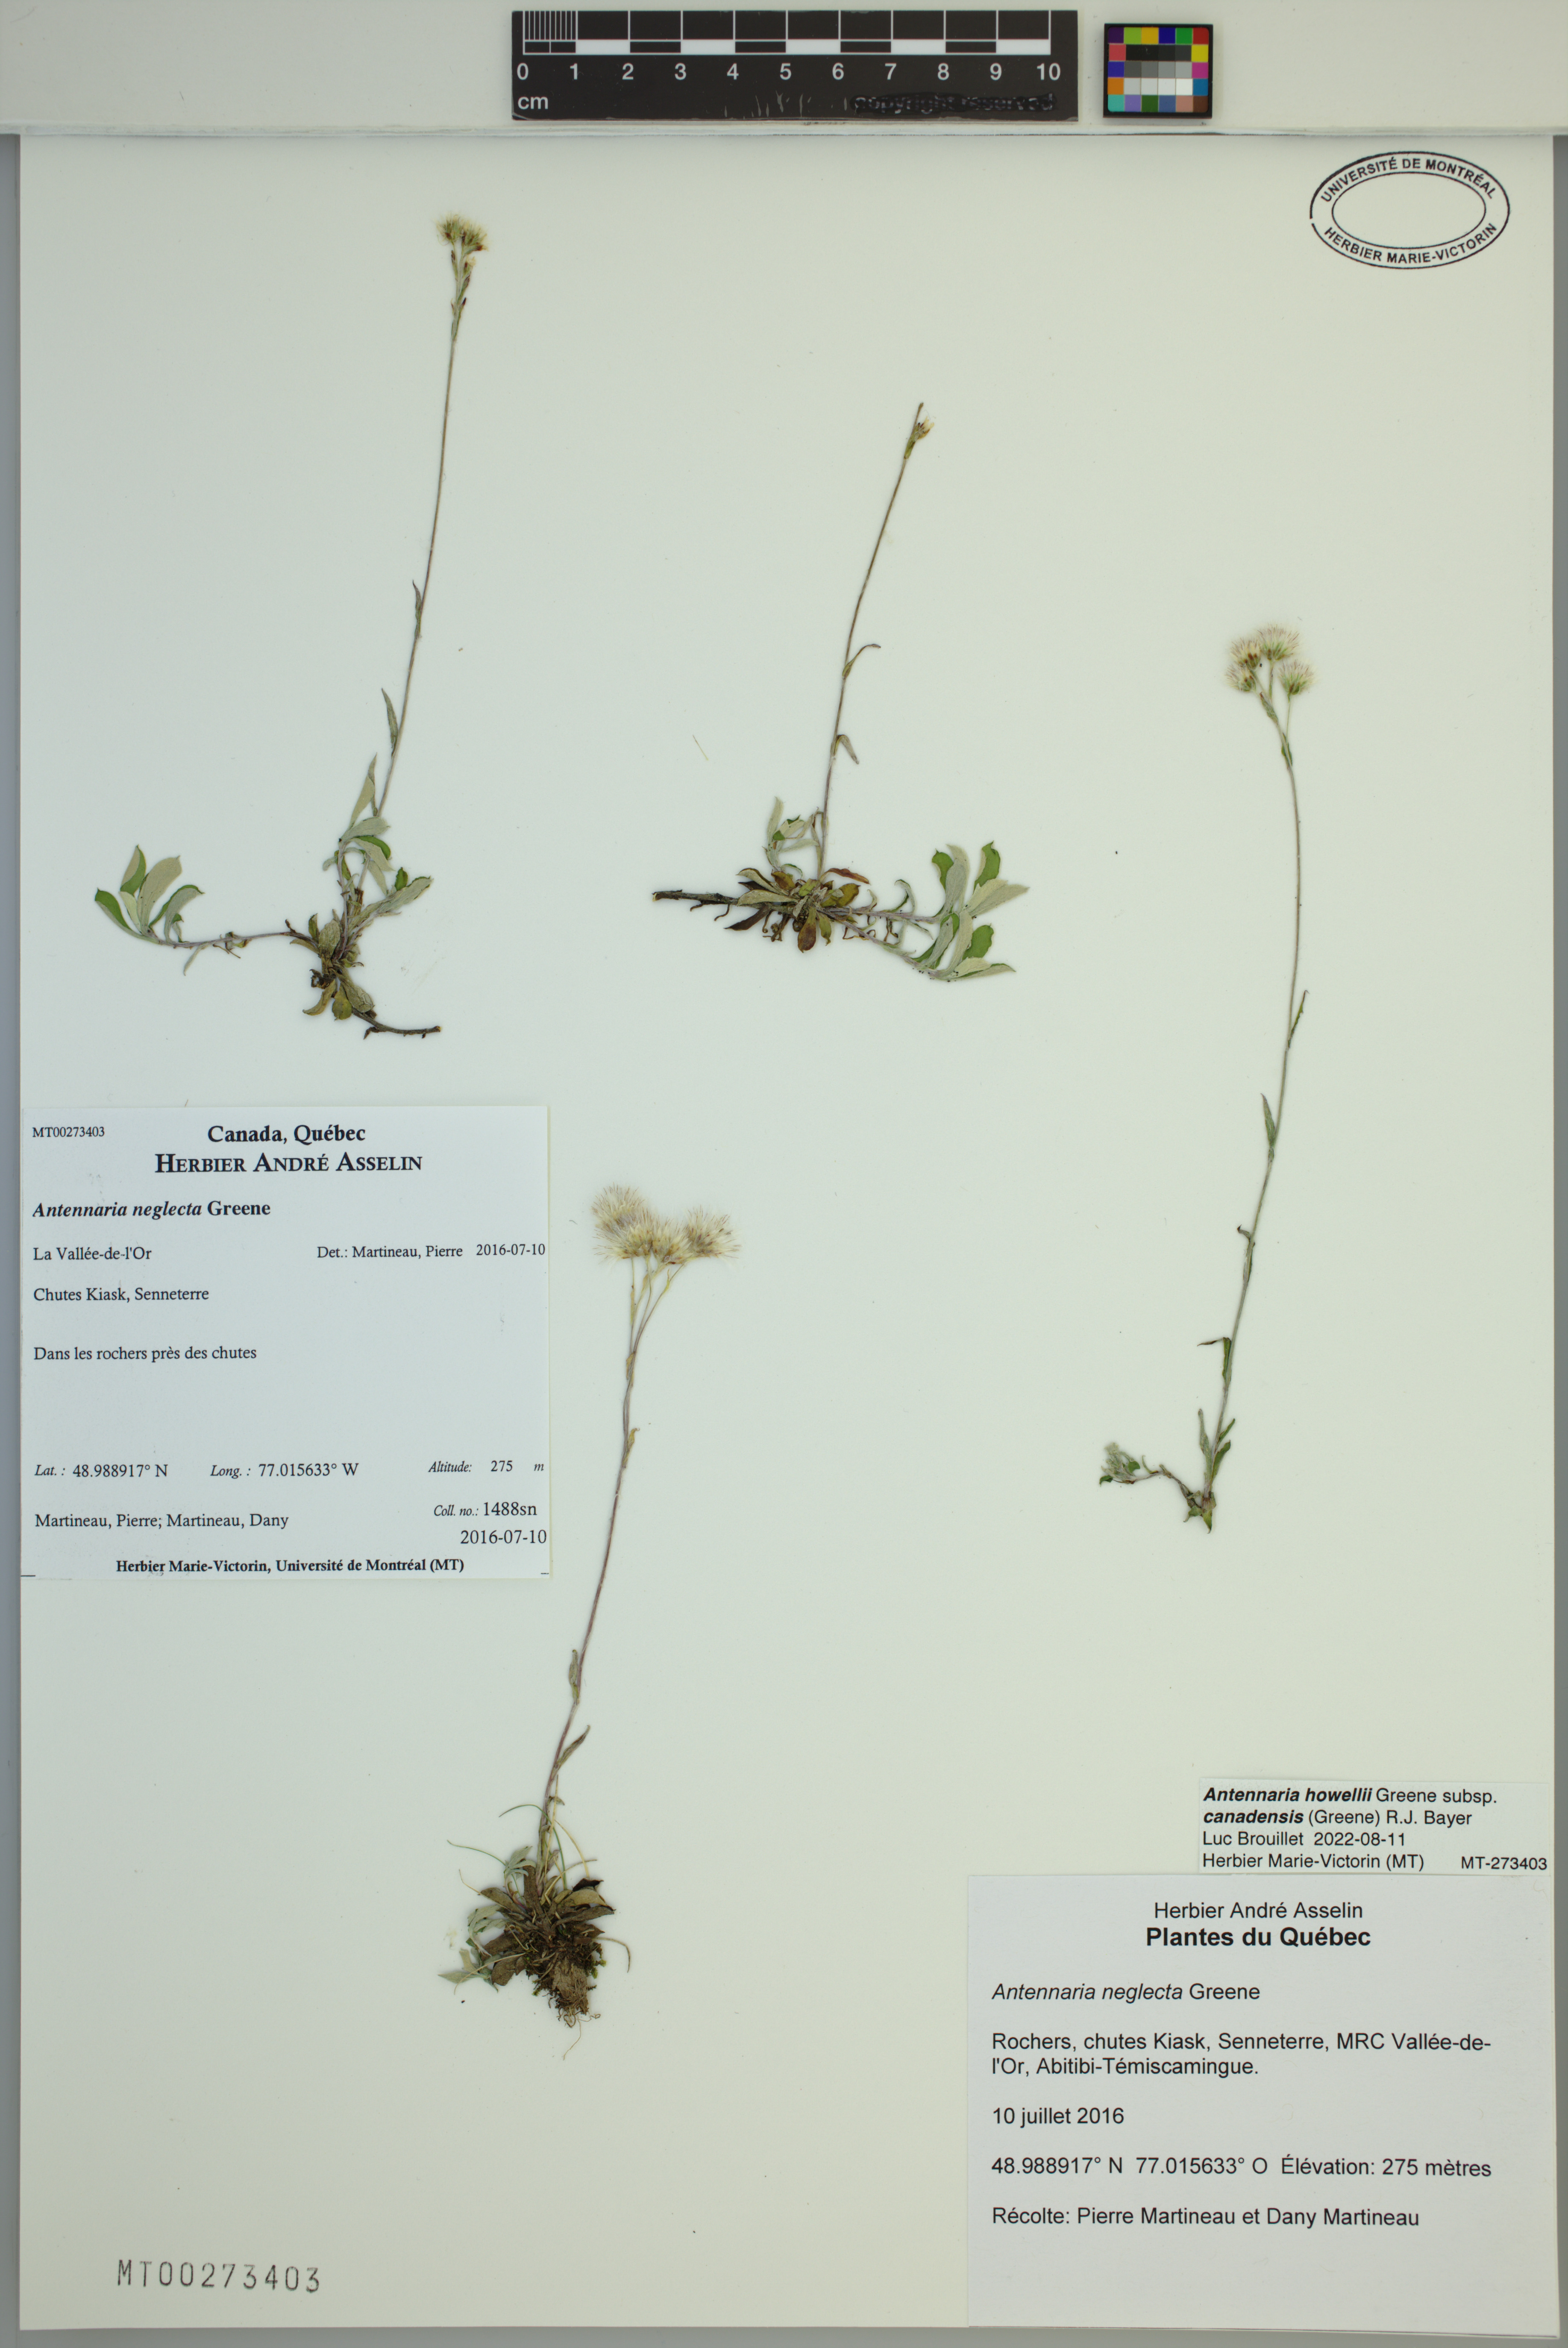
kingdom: Plantae
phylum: Tracheophyta
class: Magnoliopsida
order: Asterales
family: Asteraceae
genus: Antennaria
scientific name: Antennaria howellii
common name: Howell's pussytoes
